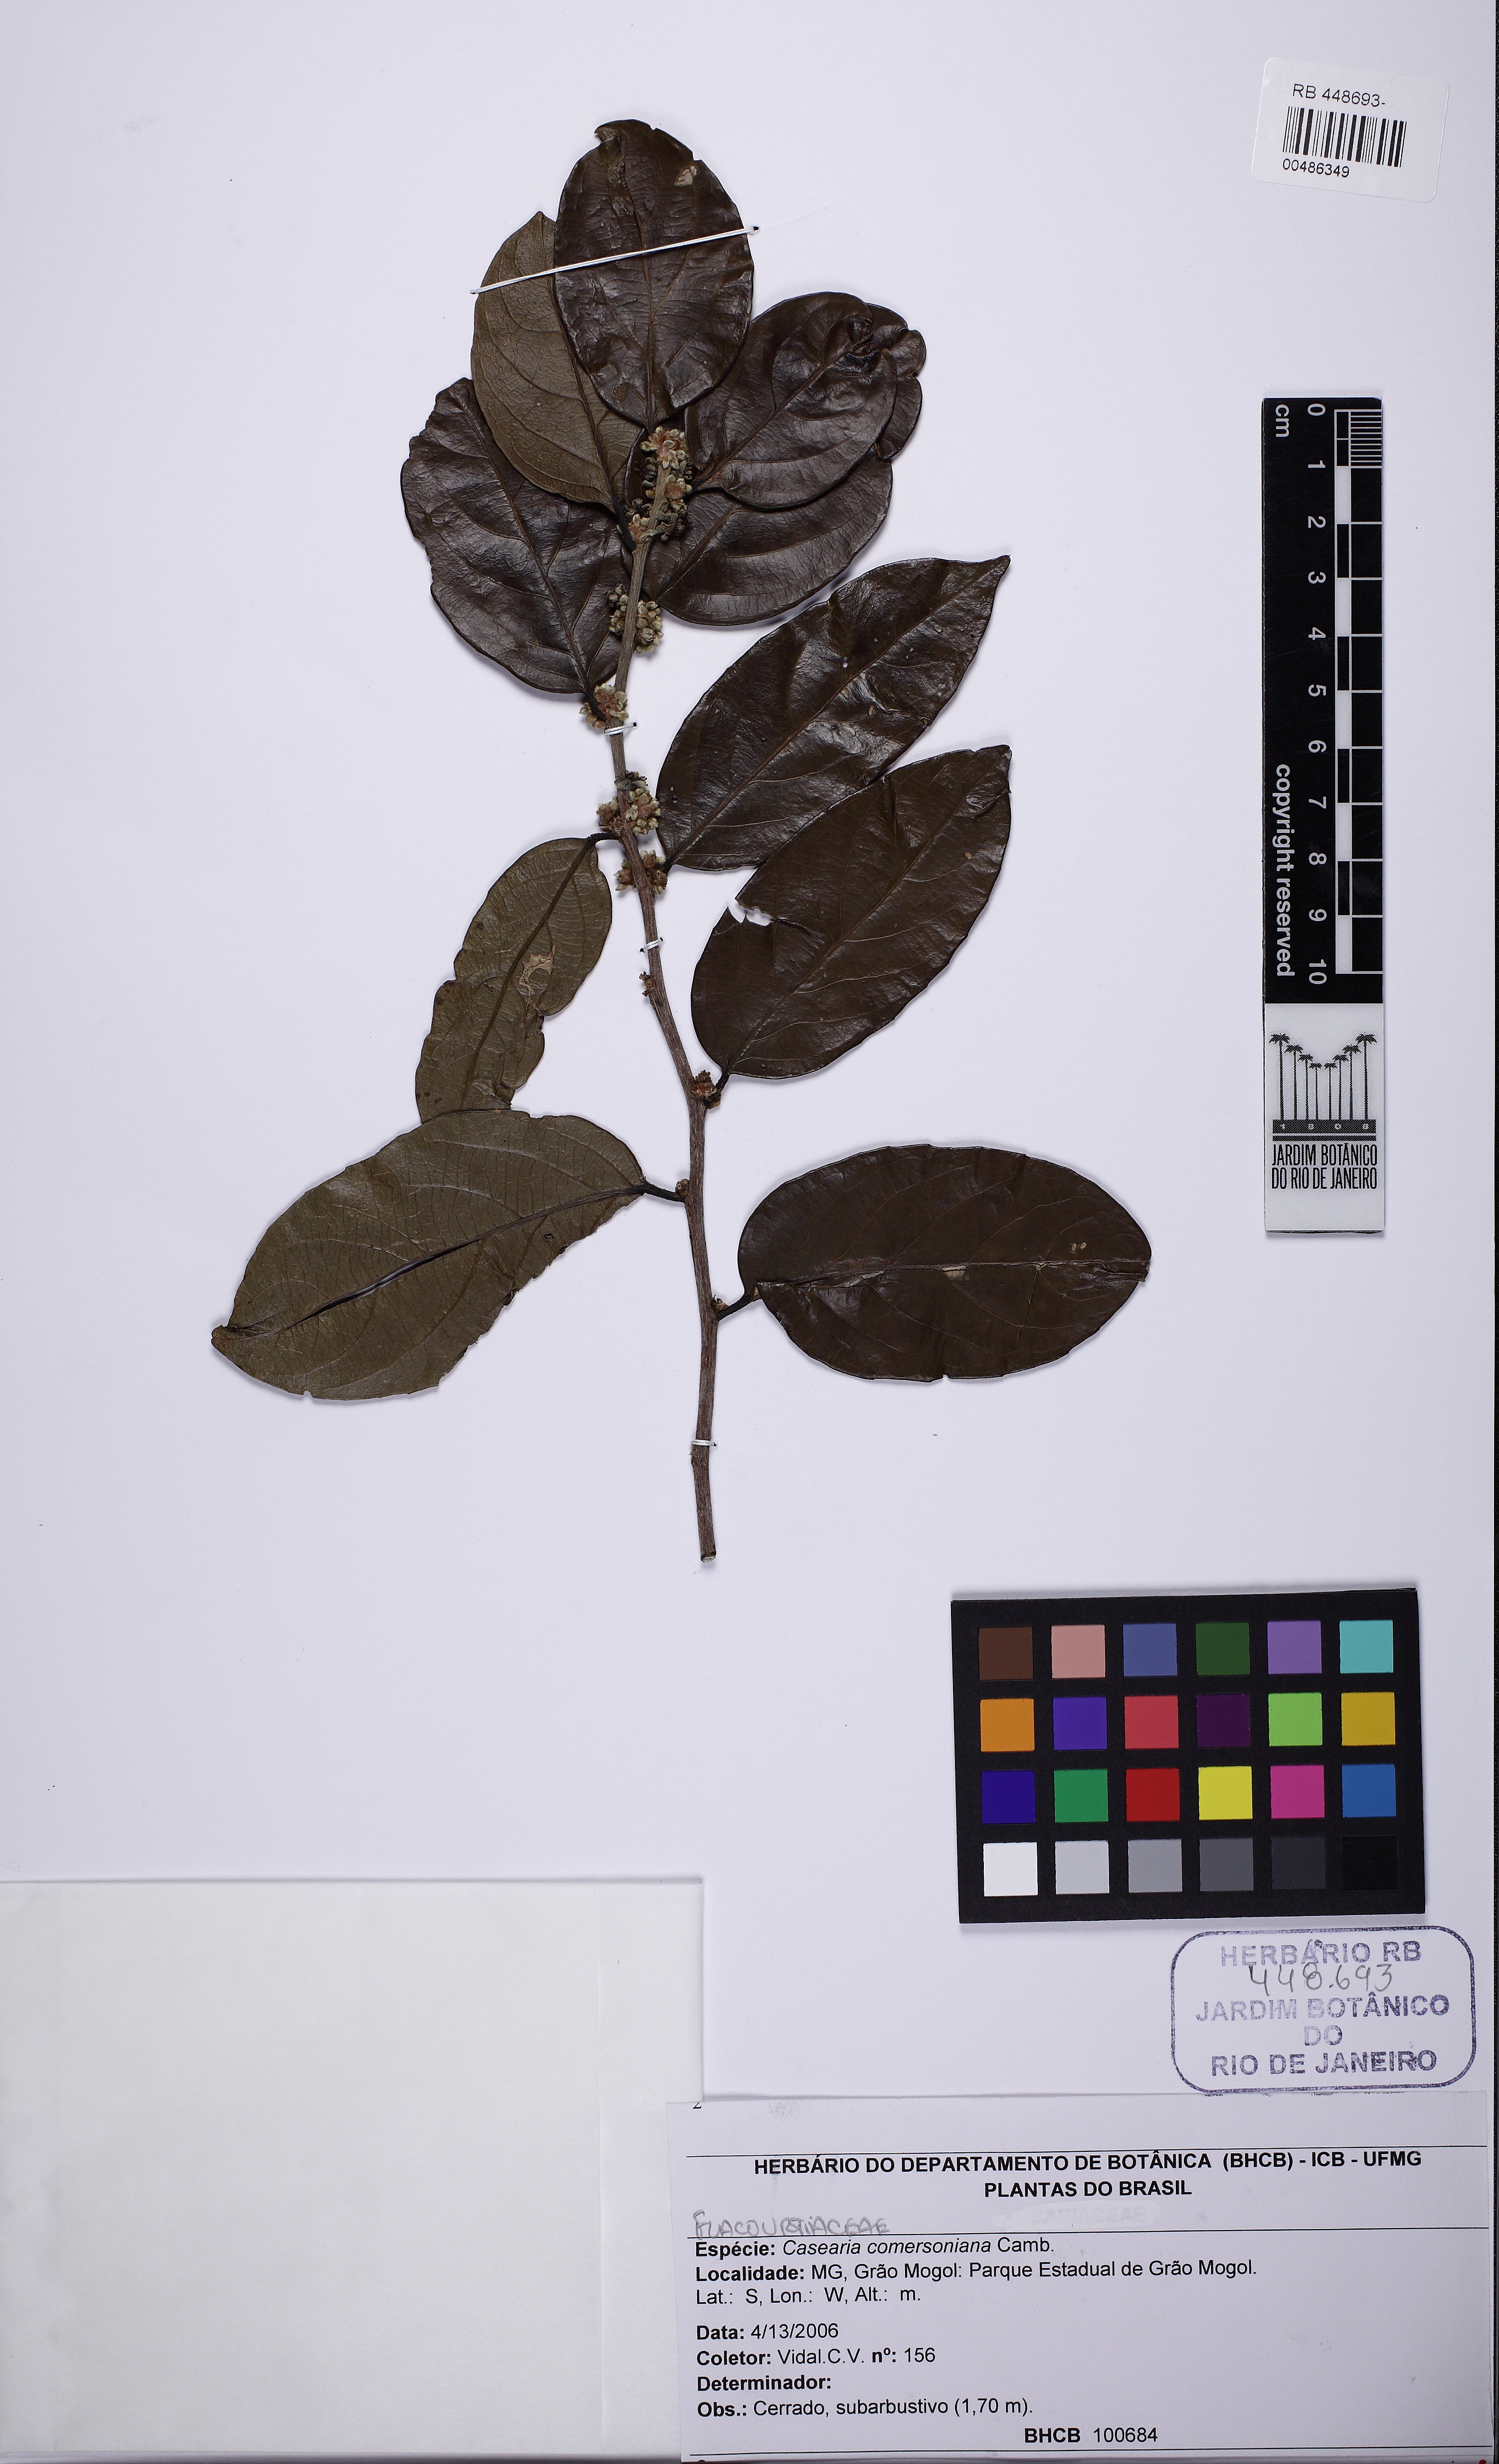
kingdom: Plantae
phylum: Tracheophyta
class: Magnoliopsida
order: Malpighiales
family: Salicaceae
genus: Piparea
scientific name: Piparea dentata
